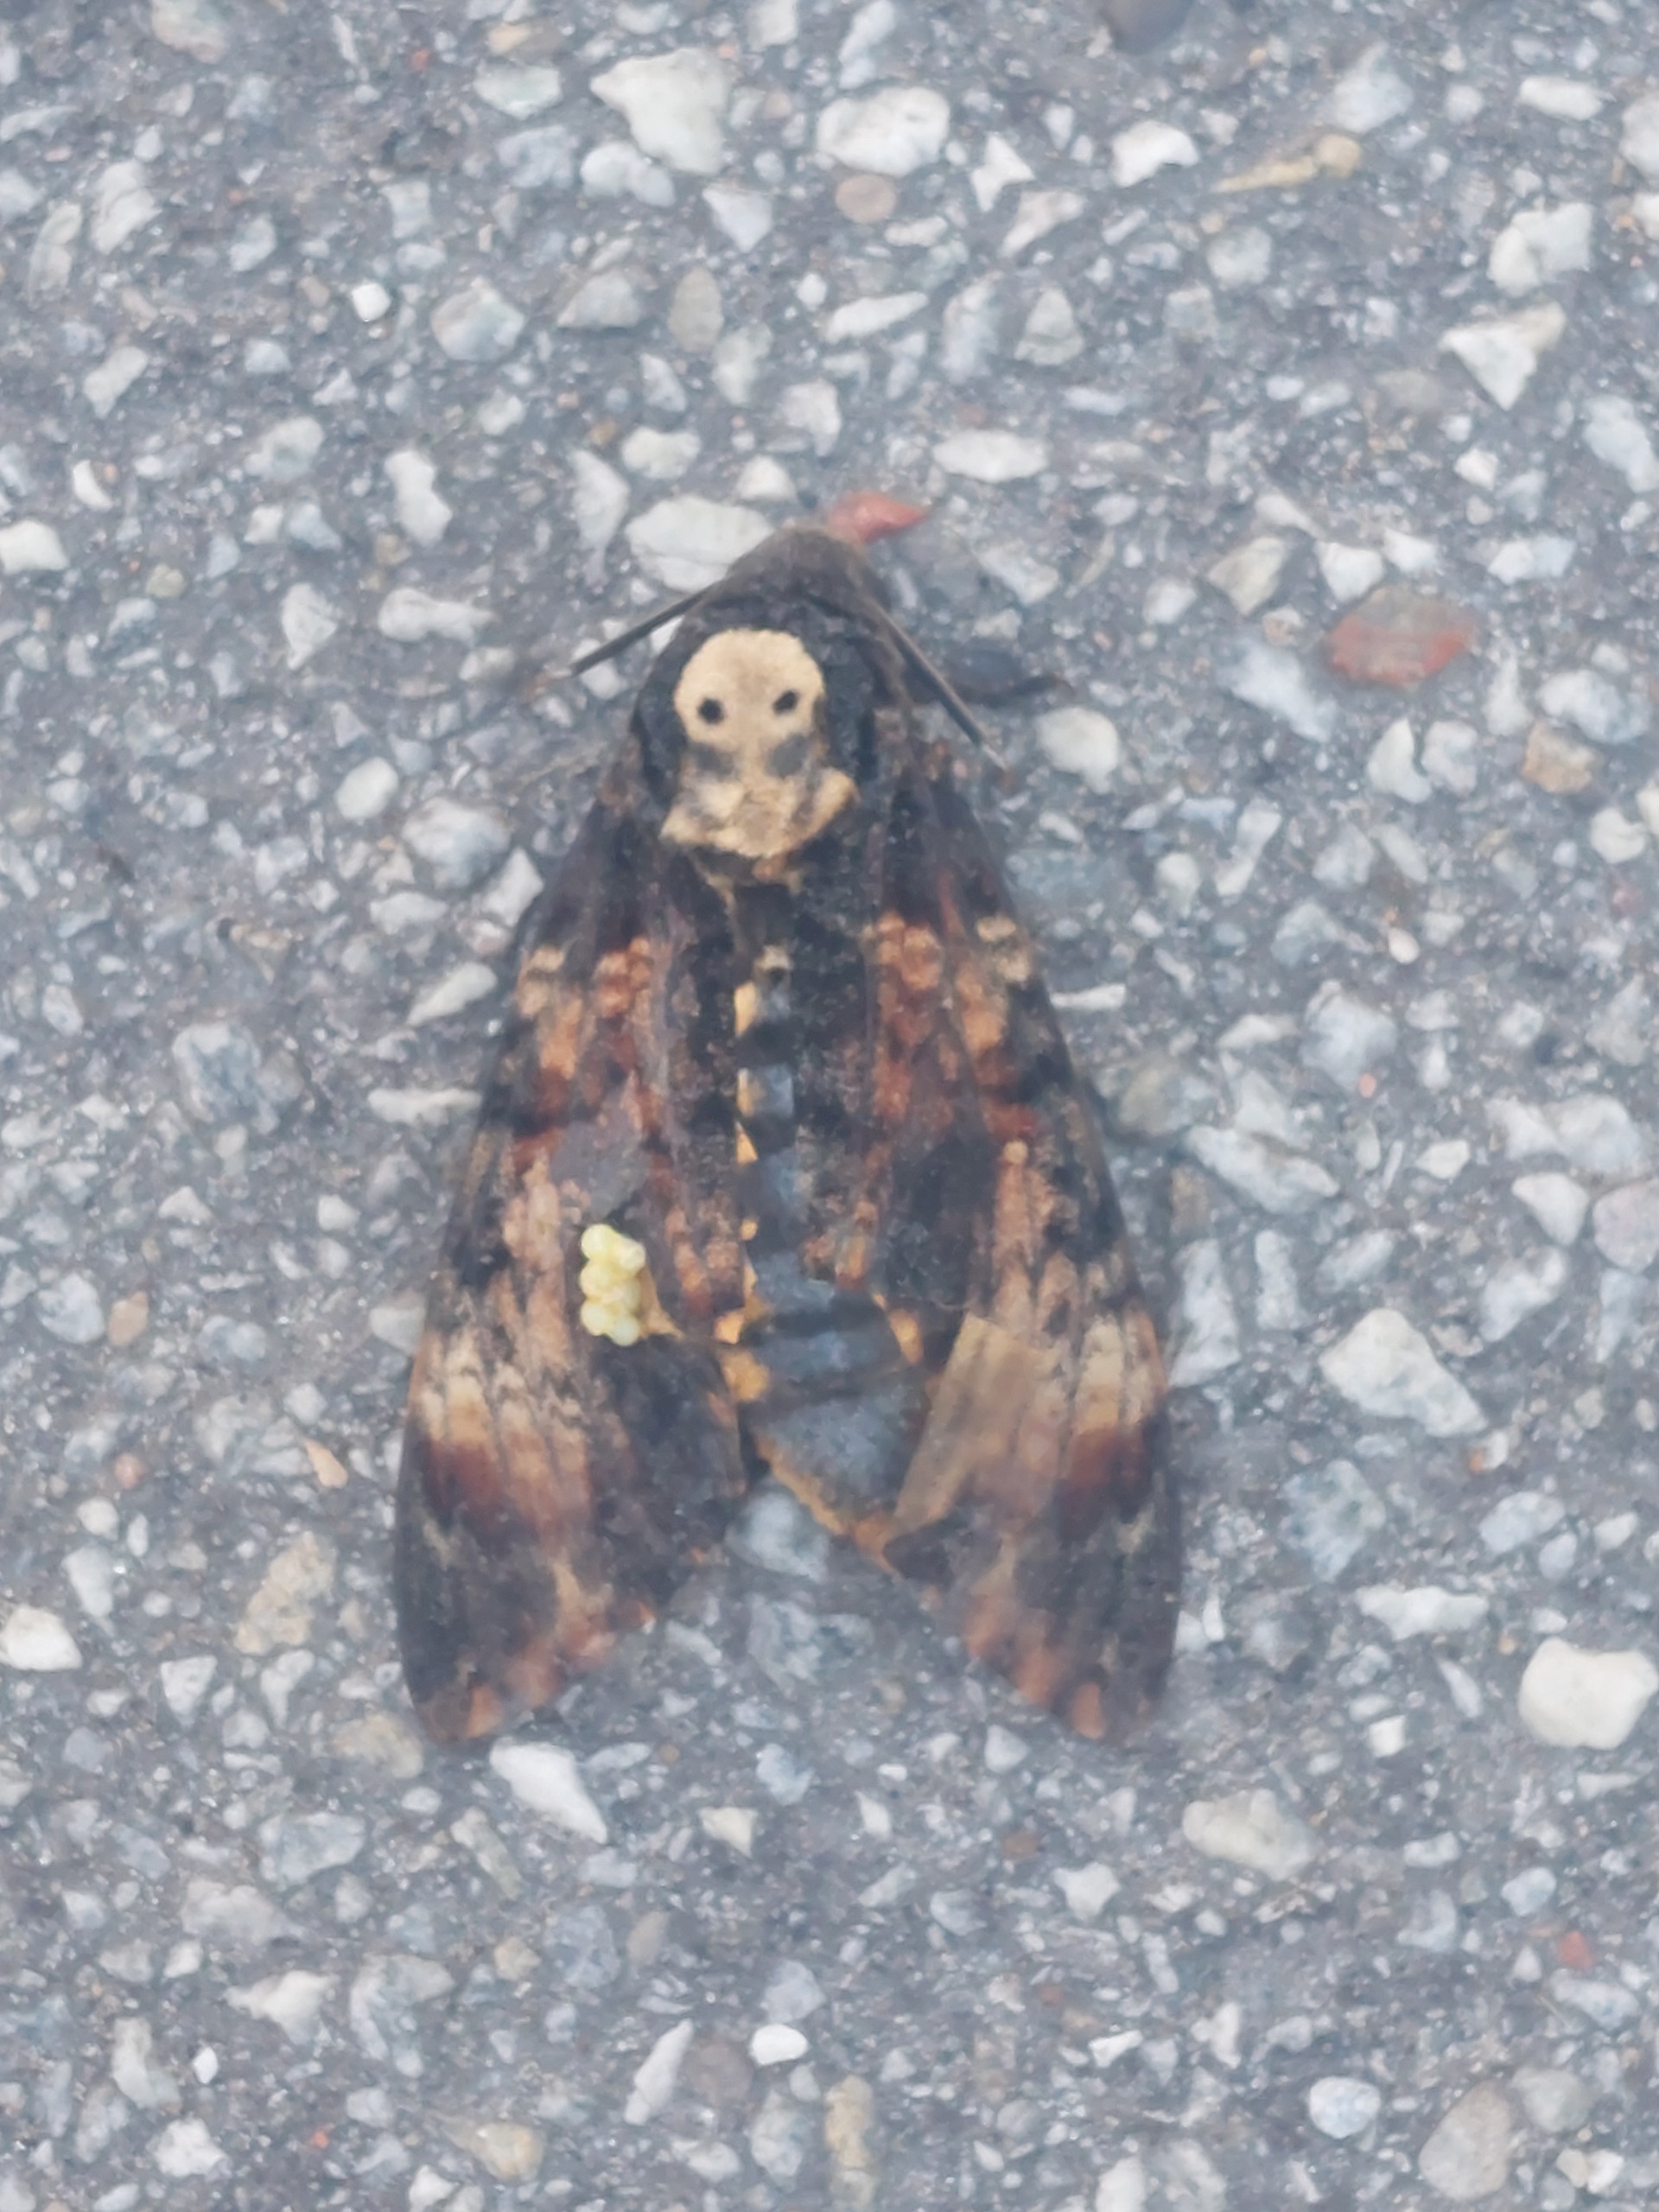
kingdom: Animalia
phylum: Arthropoda
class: Insecta
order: Lepidoptera
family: Sphingidae
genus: Acherontia
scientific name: Acherontia atropos
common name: Dødningehoved
